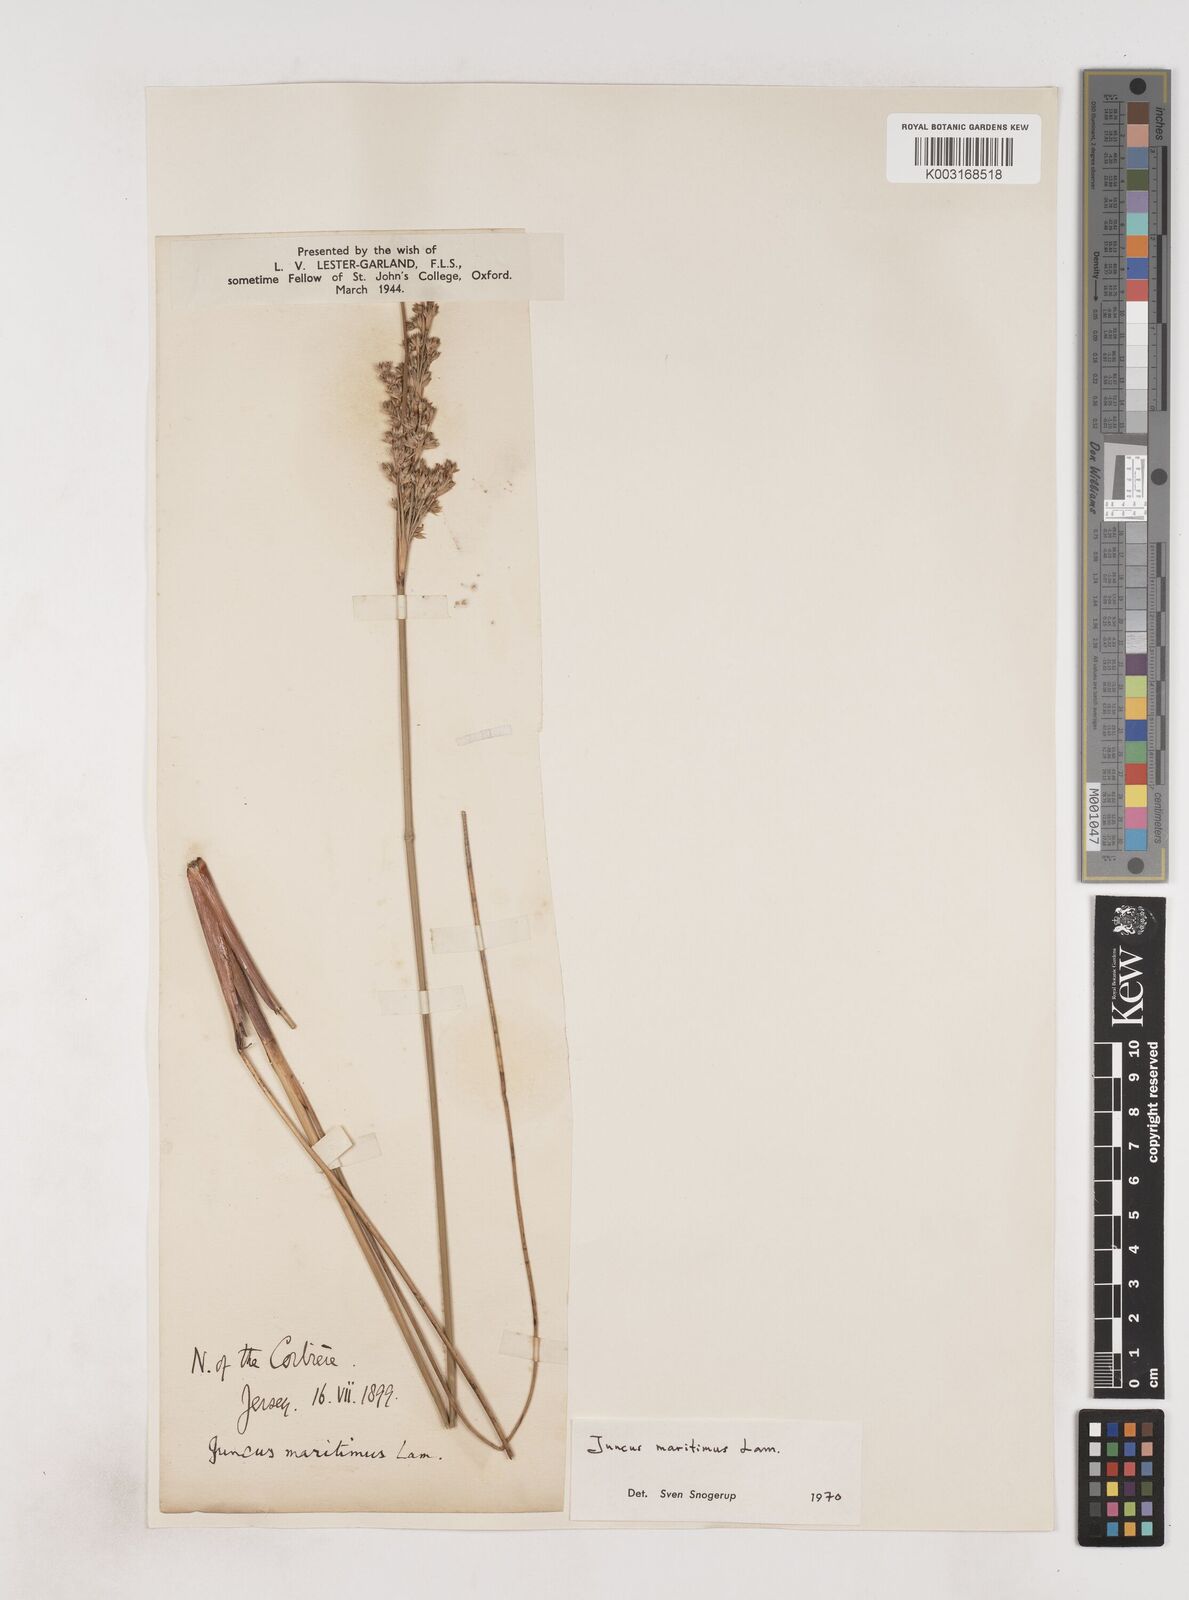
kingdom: Plantae
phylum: Tracheophyta
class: Liliopsida
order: Poales
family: Juncaceae
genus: Juncus
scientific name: Juncus maritimus
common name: Sea rush
